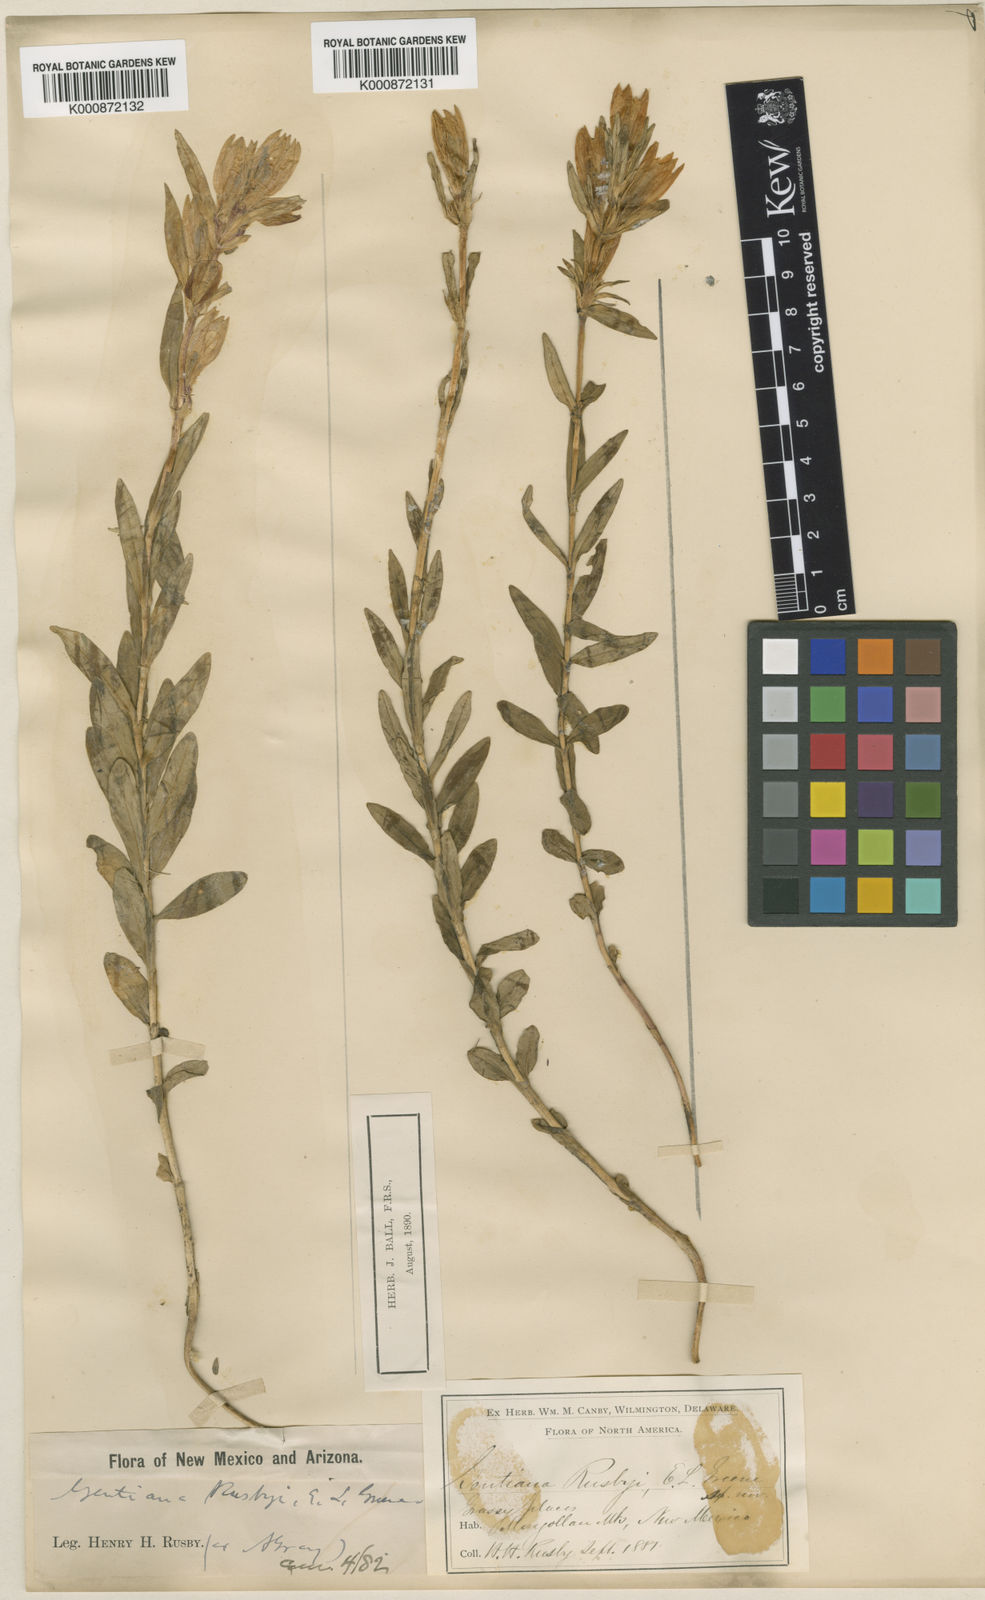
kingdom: Plantae
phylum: Tracheophyta
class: Magnoliopsida
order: Gentianales
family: Gentianaceae
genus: Gentiana
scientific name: Gentiana affinis
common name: Rocky mountain gentian
